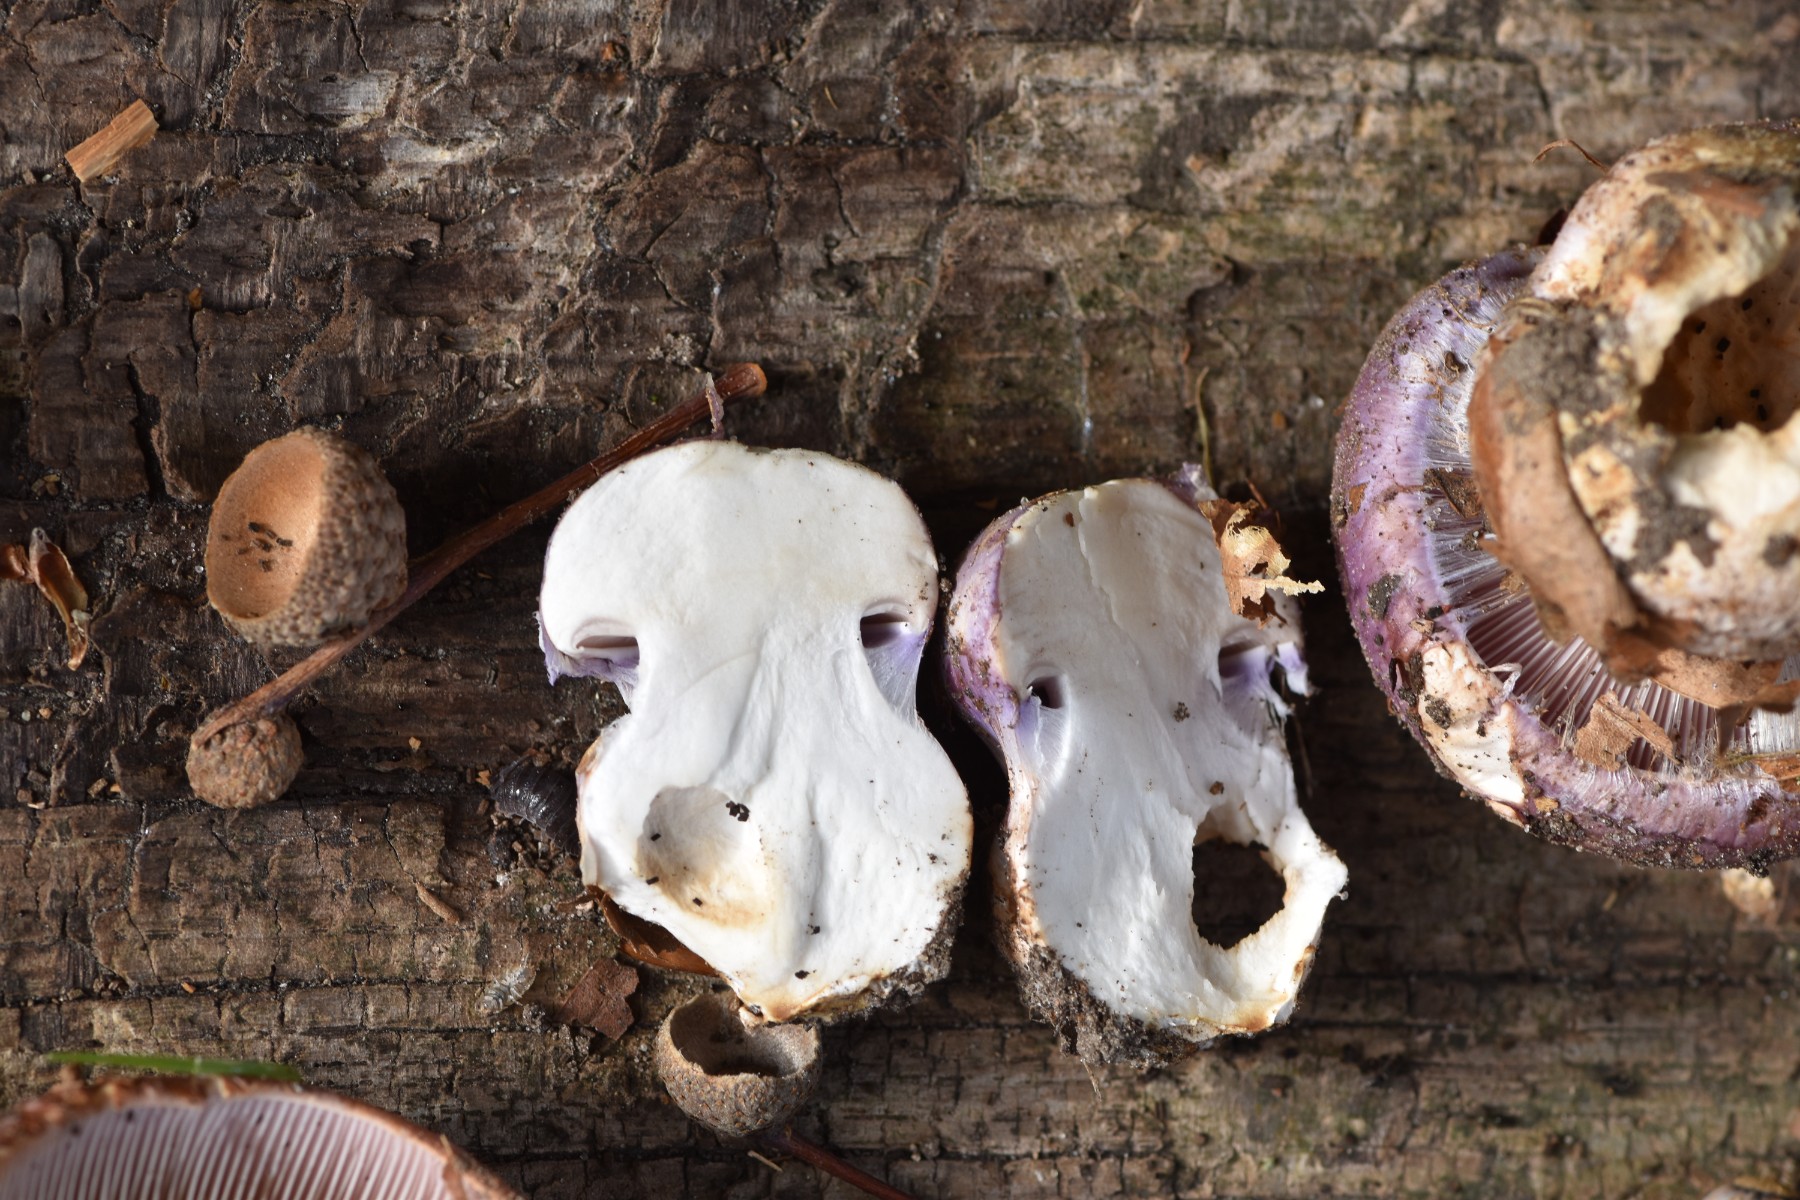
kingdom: Fungi
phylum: Basidiomycota
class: Agaricomycetes
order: Agaricales
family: Cortinariaceae
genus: Phlegmacium
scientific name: Phlegmacium balteatocumatile
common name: violettrådet slørhat
